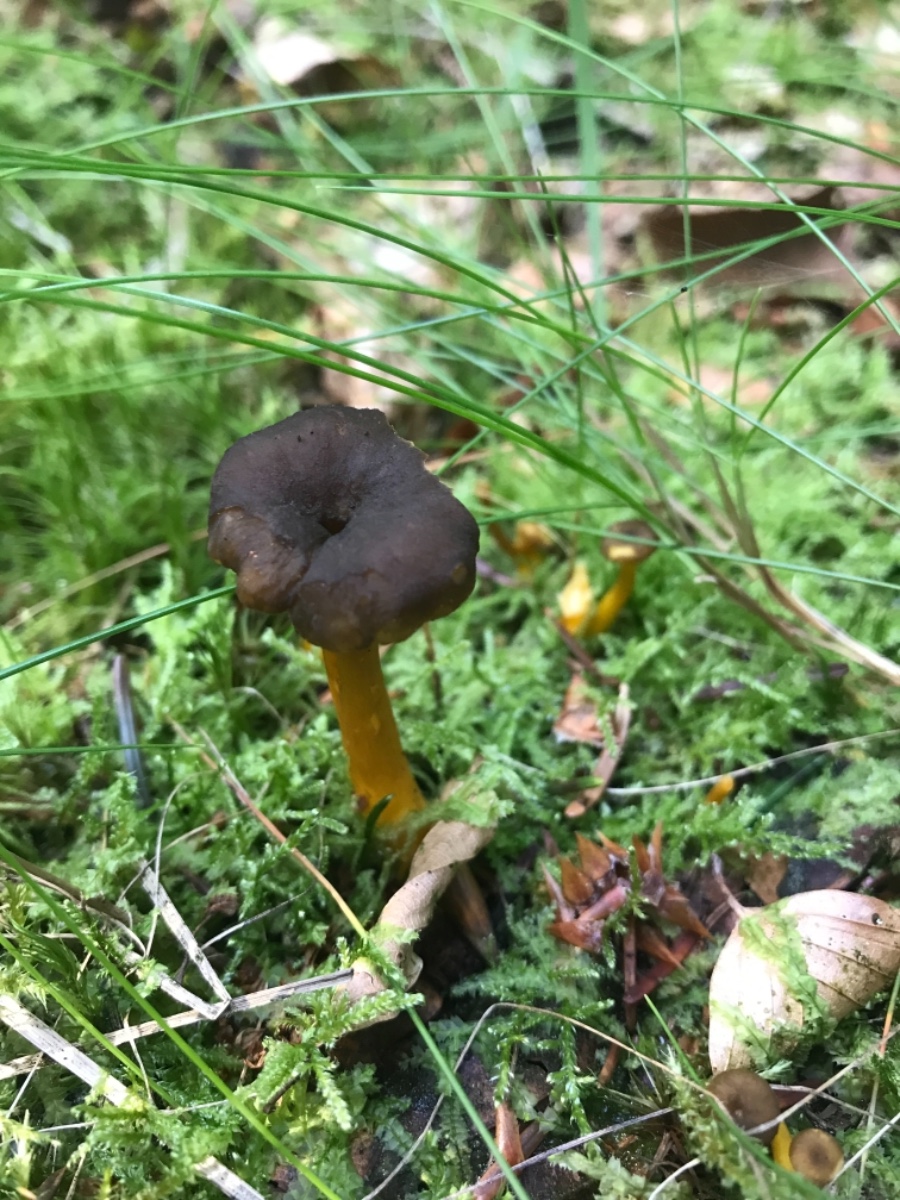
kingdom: Fungi
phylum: Basidiomycota
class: Agaricomycetes
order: Cantharellales
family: Hydnaceae
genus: Craterellus
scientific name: Craterellus tubaeformis
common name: tragt-kantarel
